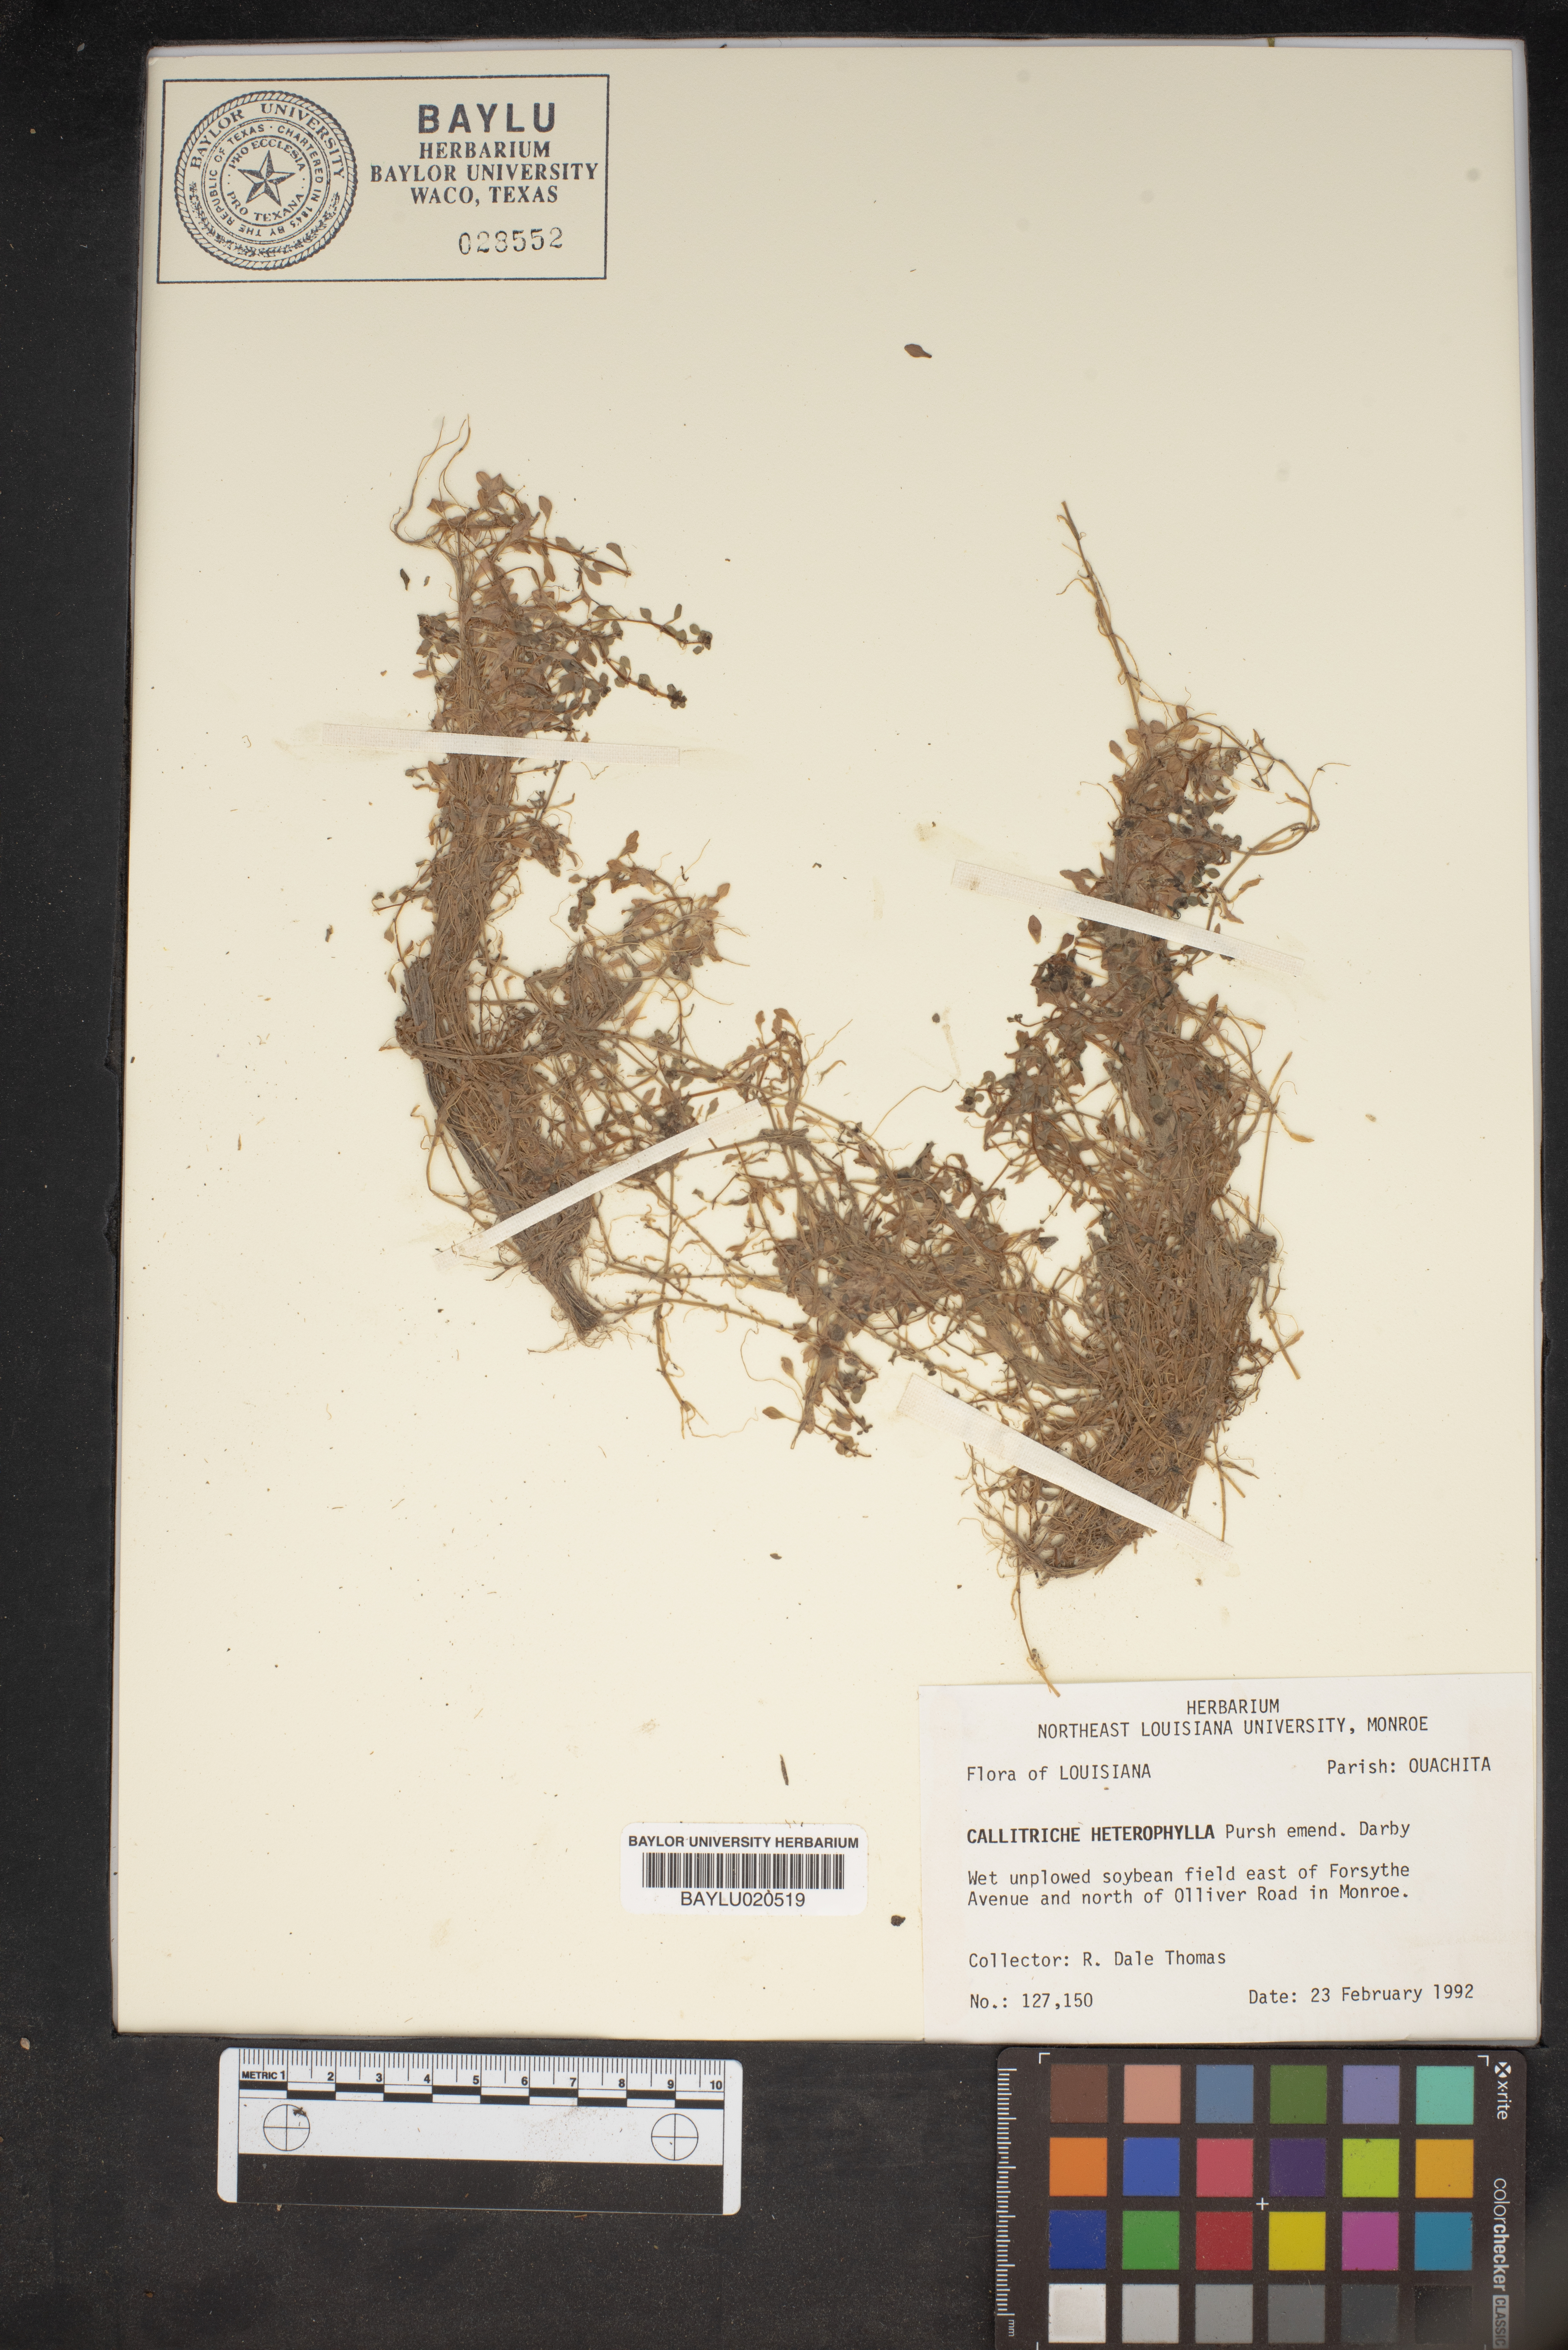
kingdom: Plantae
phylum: Tracheophyta
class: Magnoliopsida
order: Lamiales
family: Plantaginaceae
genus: Callitriche
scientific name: Callitriche heterophylla
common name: Two-headed water-starwort
